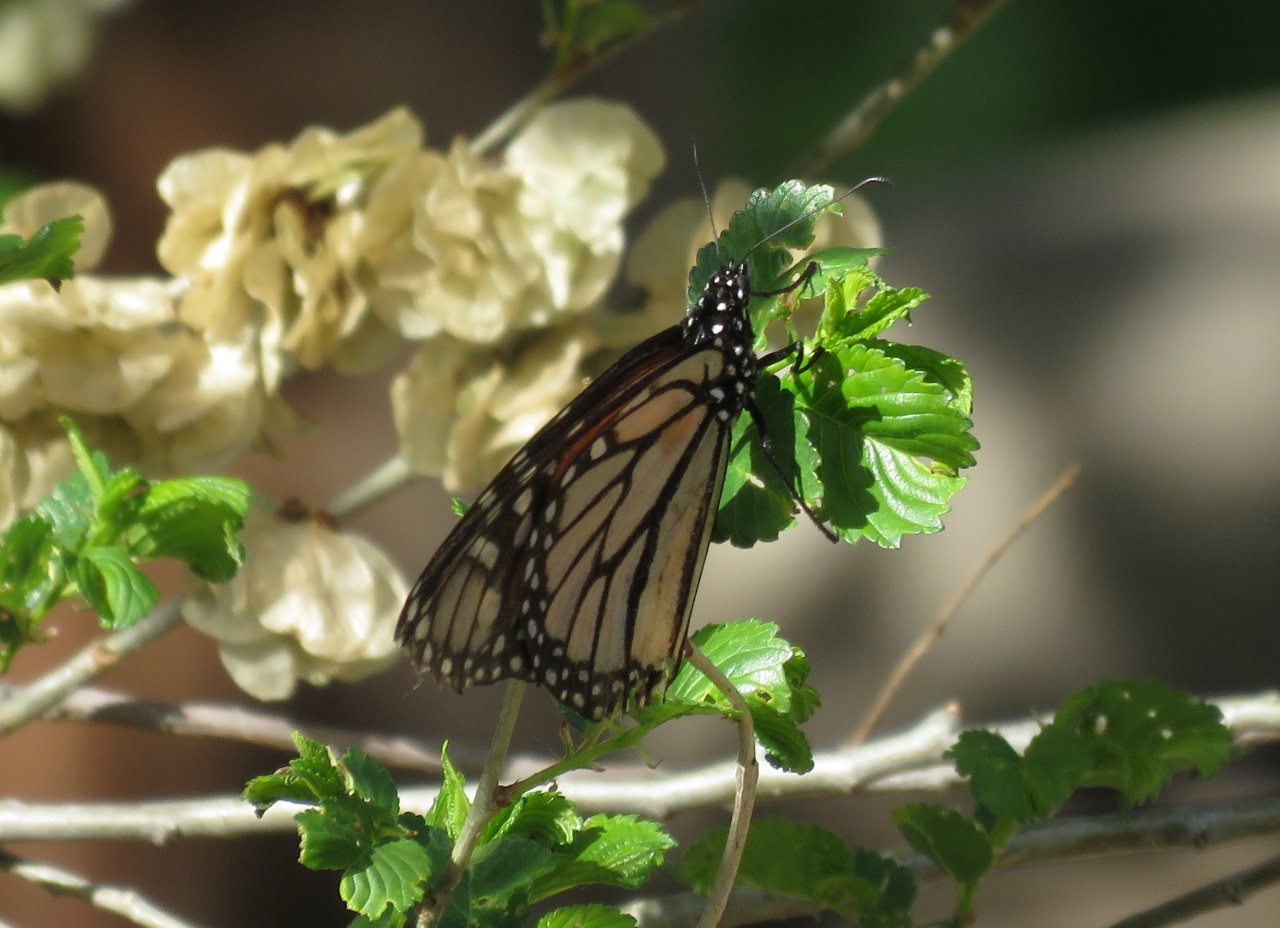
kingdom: Animalia
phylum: Arthropoda
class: Insecta
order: Lepidoptera
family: Nymphalidae
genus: Danaus
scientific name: Danaus plexippus
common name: Monarch
